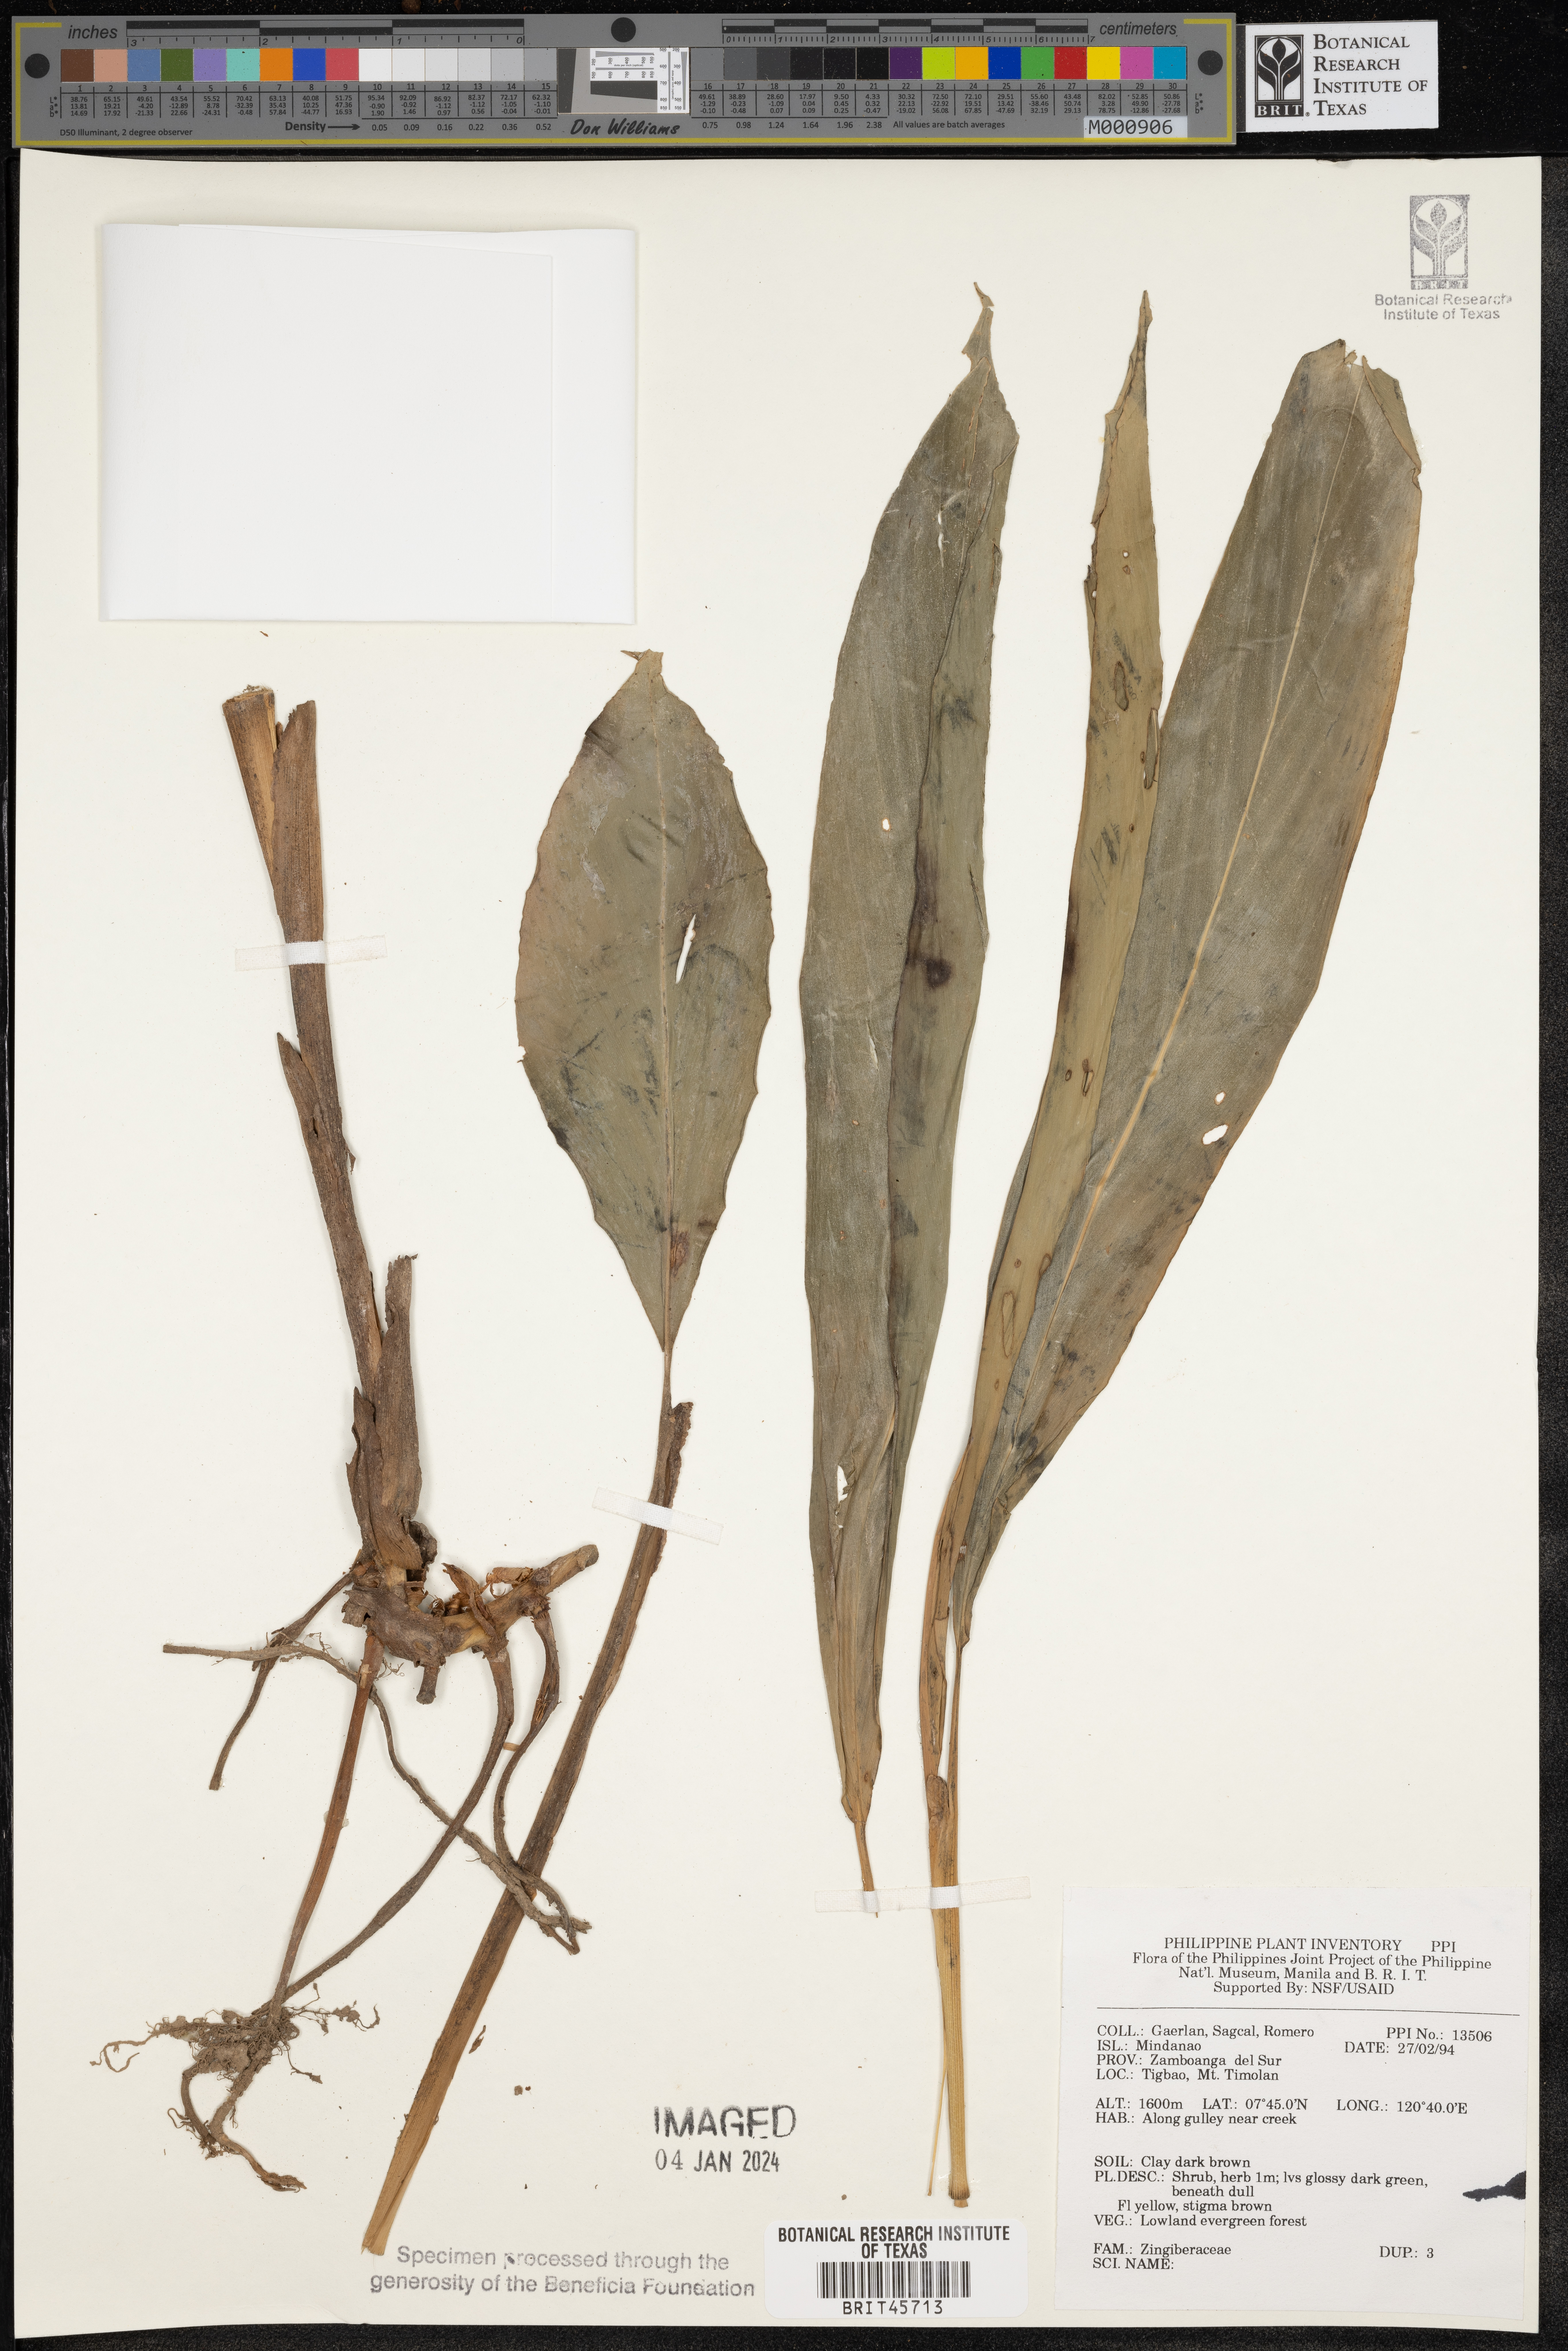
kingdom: Plantae
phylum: Tracheophyta
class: Liliopsida
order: Zingiberales
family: Zingiberaceae
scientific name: Zingiberaceae
